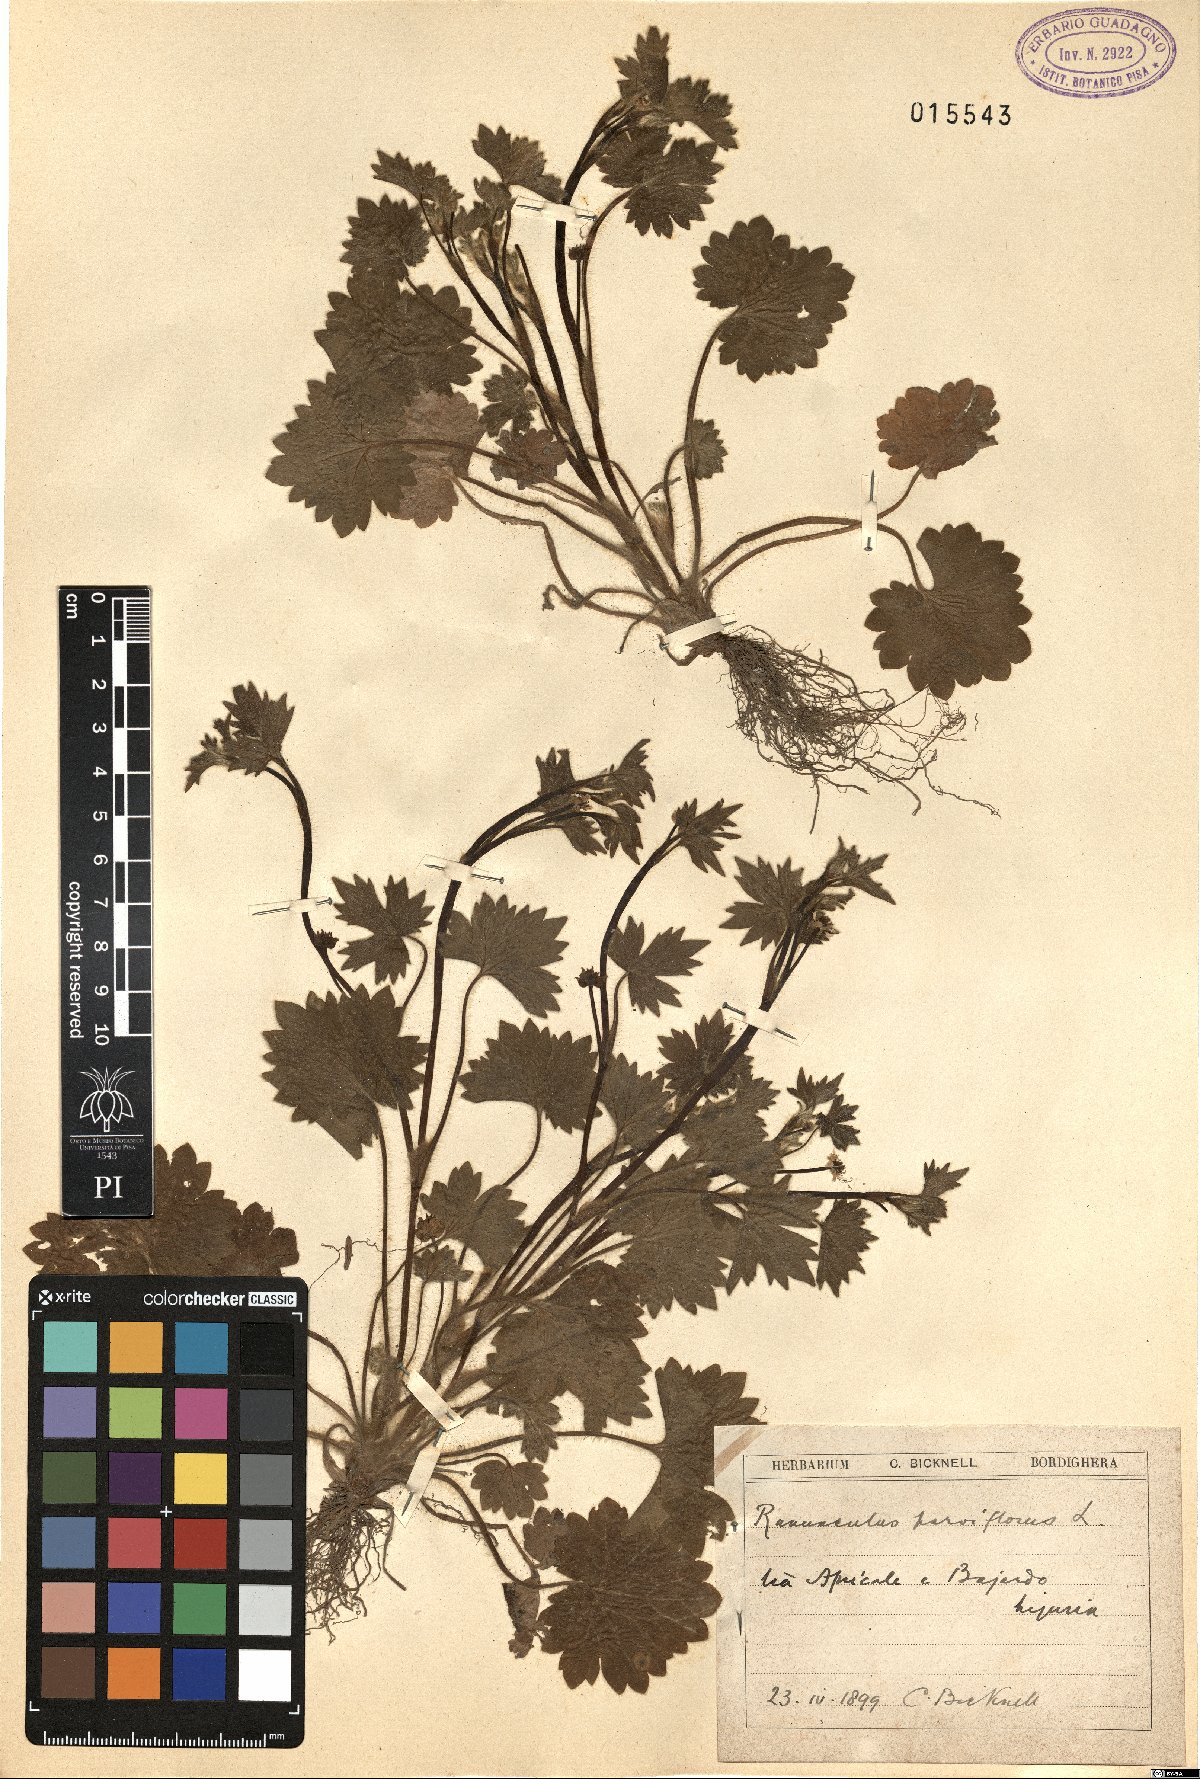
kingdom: Plantae
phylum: Tracheophyta
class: Magnoliopsida
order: Ranunculales
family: Ranunculaceae
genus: Ranunculus
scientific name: Ranunculus parviflorus
